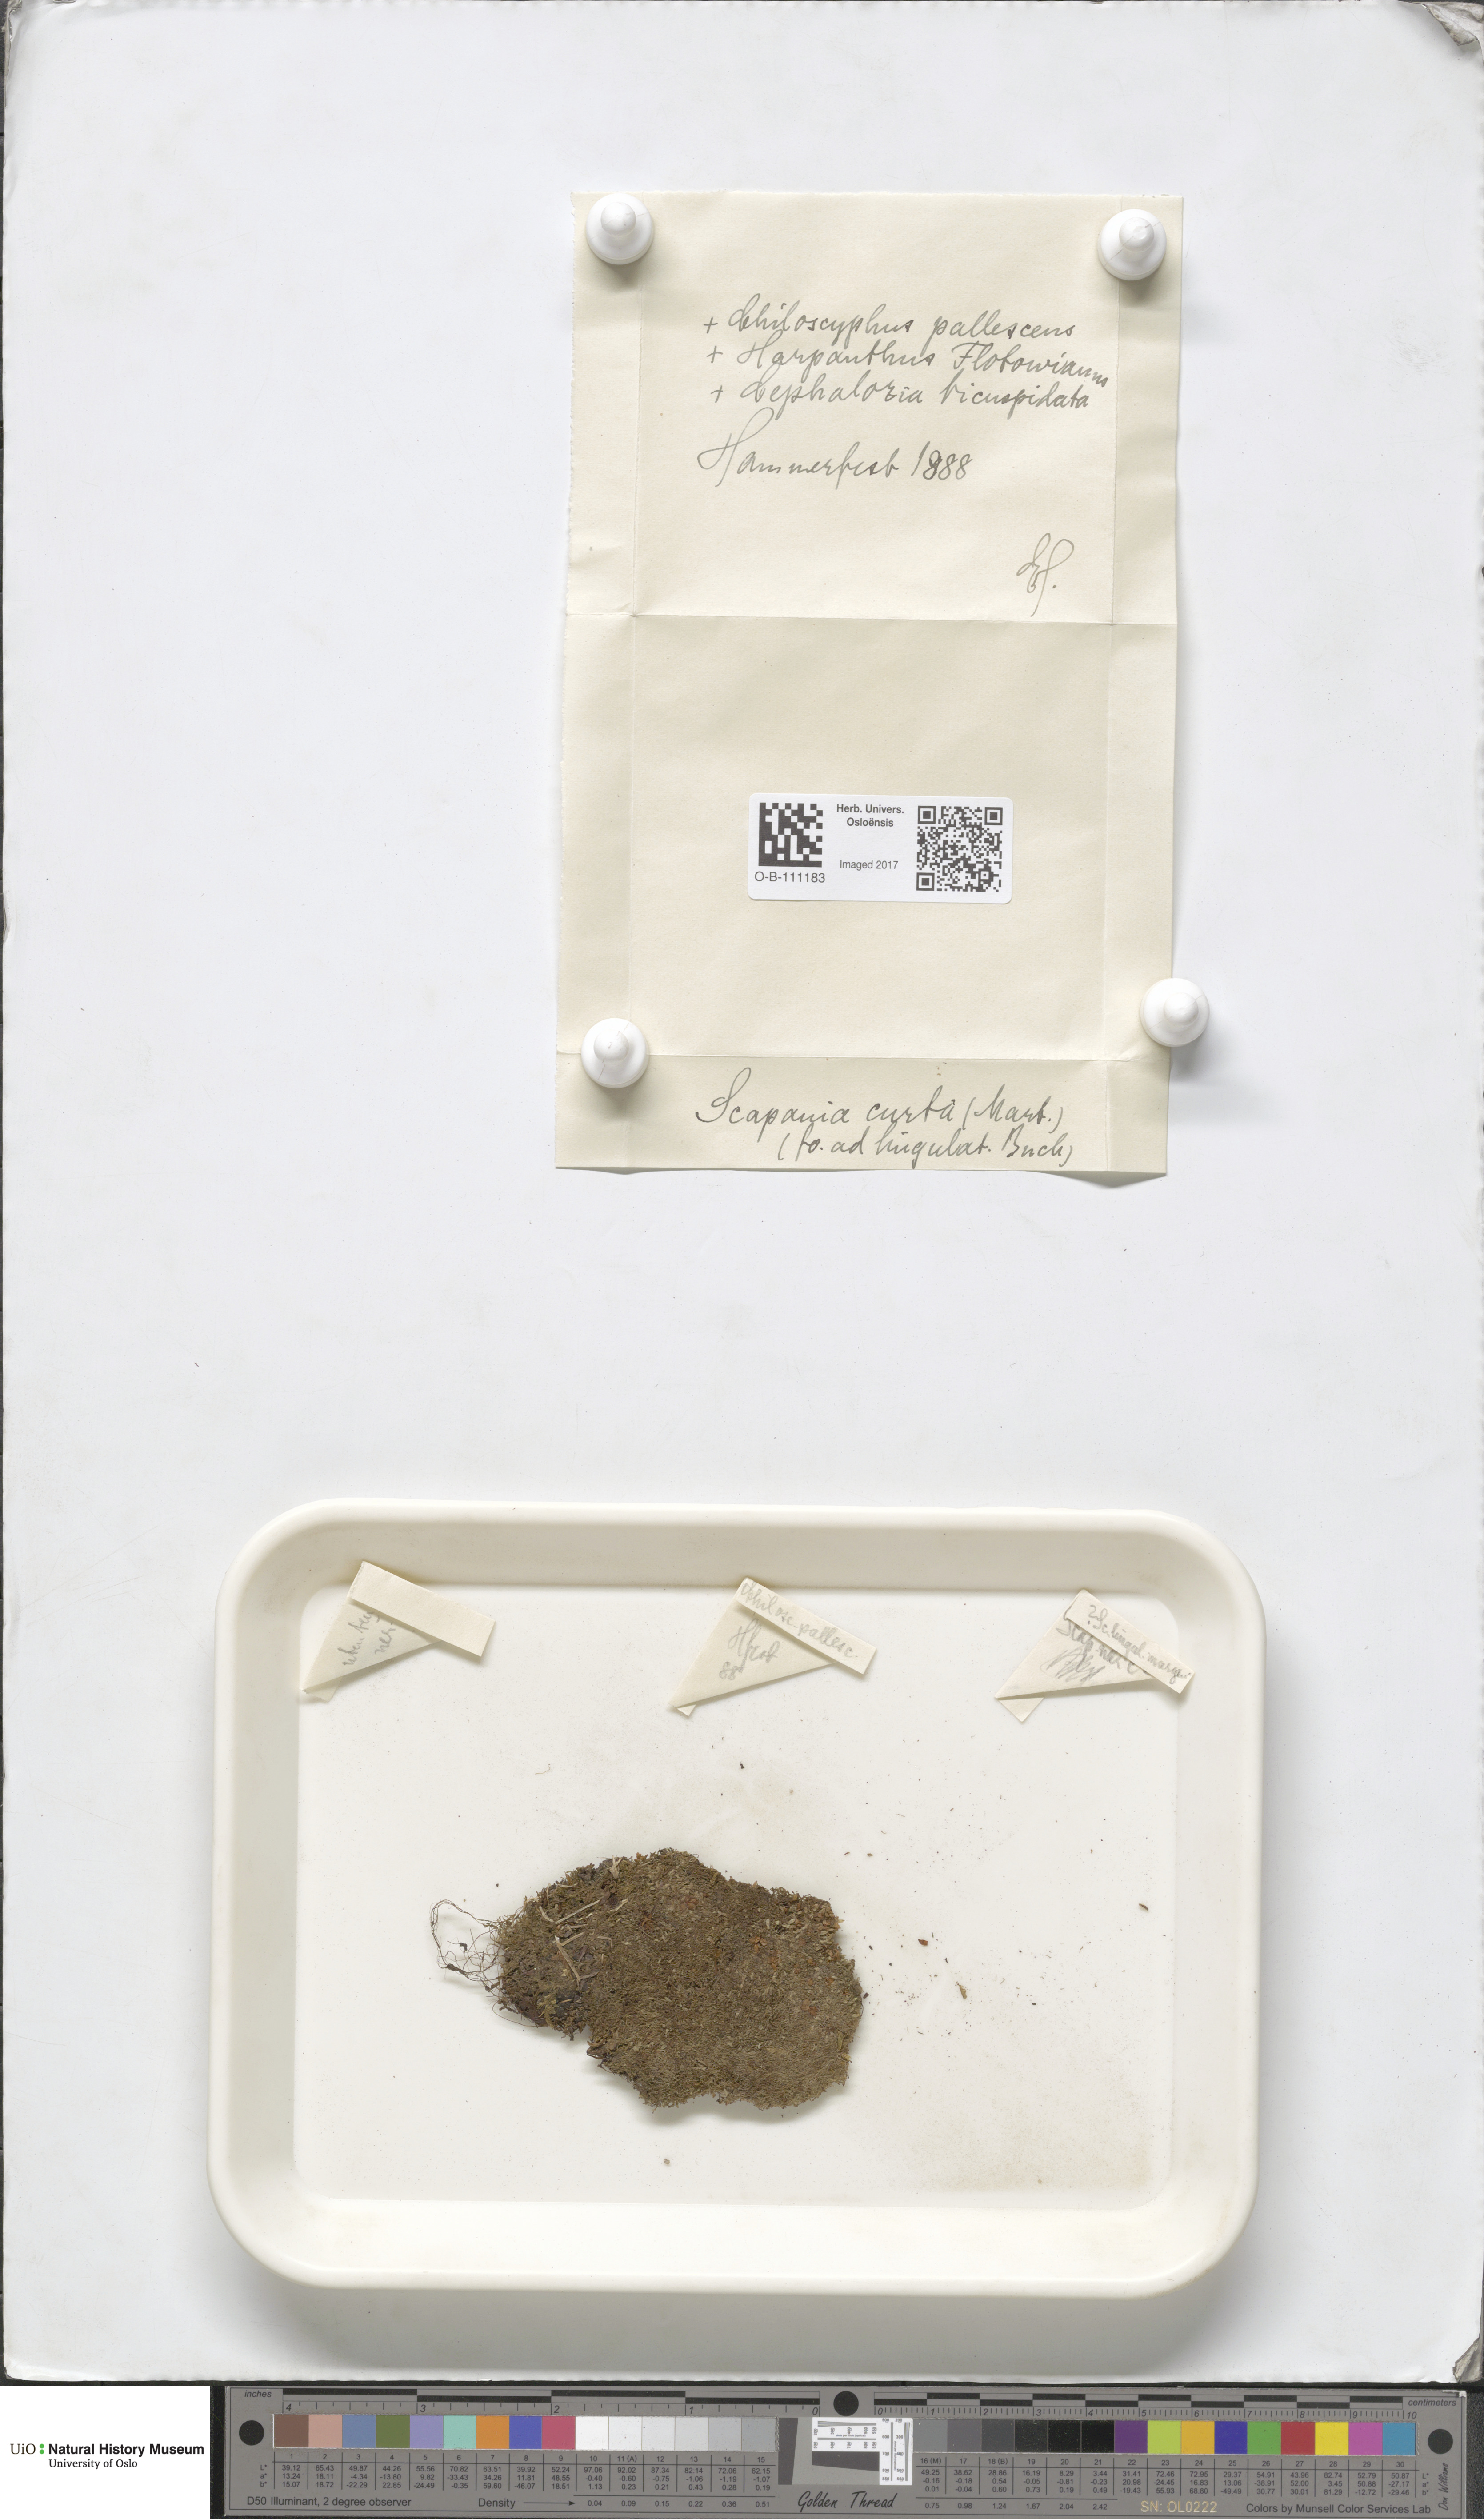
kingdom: Plantae
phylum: Marchantiophyta
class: Jungermanniopsida
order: Jungermanniales
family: Scapaniaceae
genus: Scapania
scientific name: Scapania curta
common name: Least earwort
